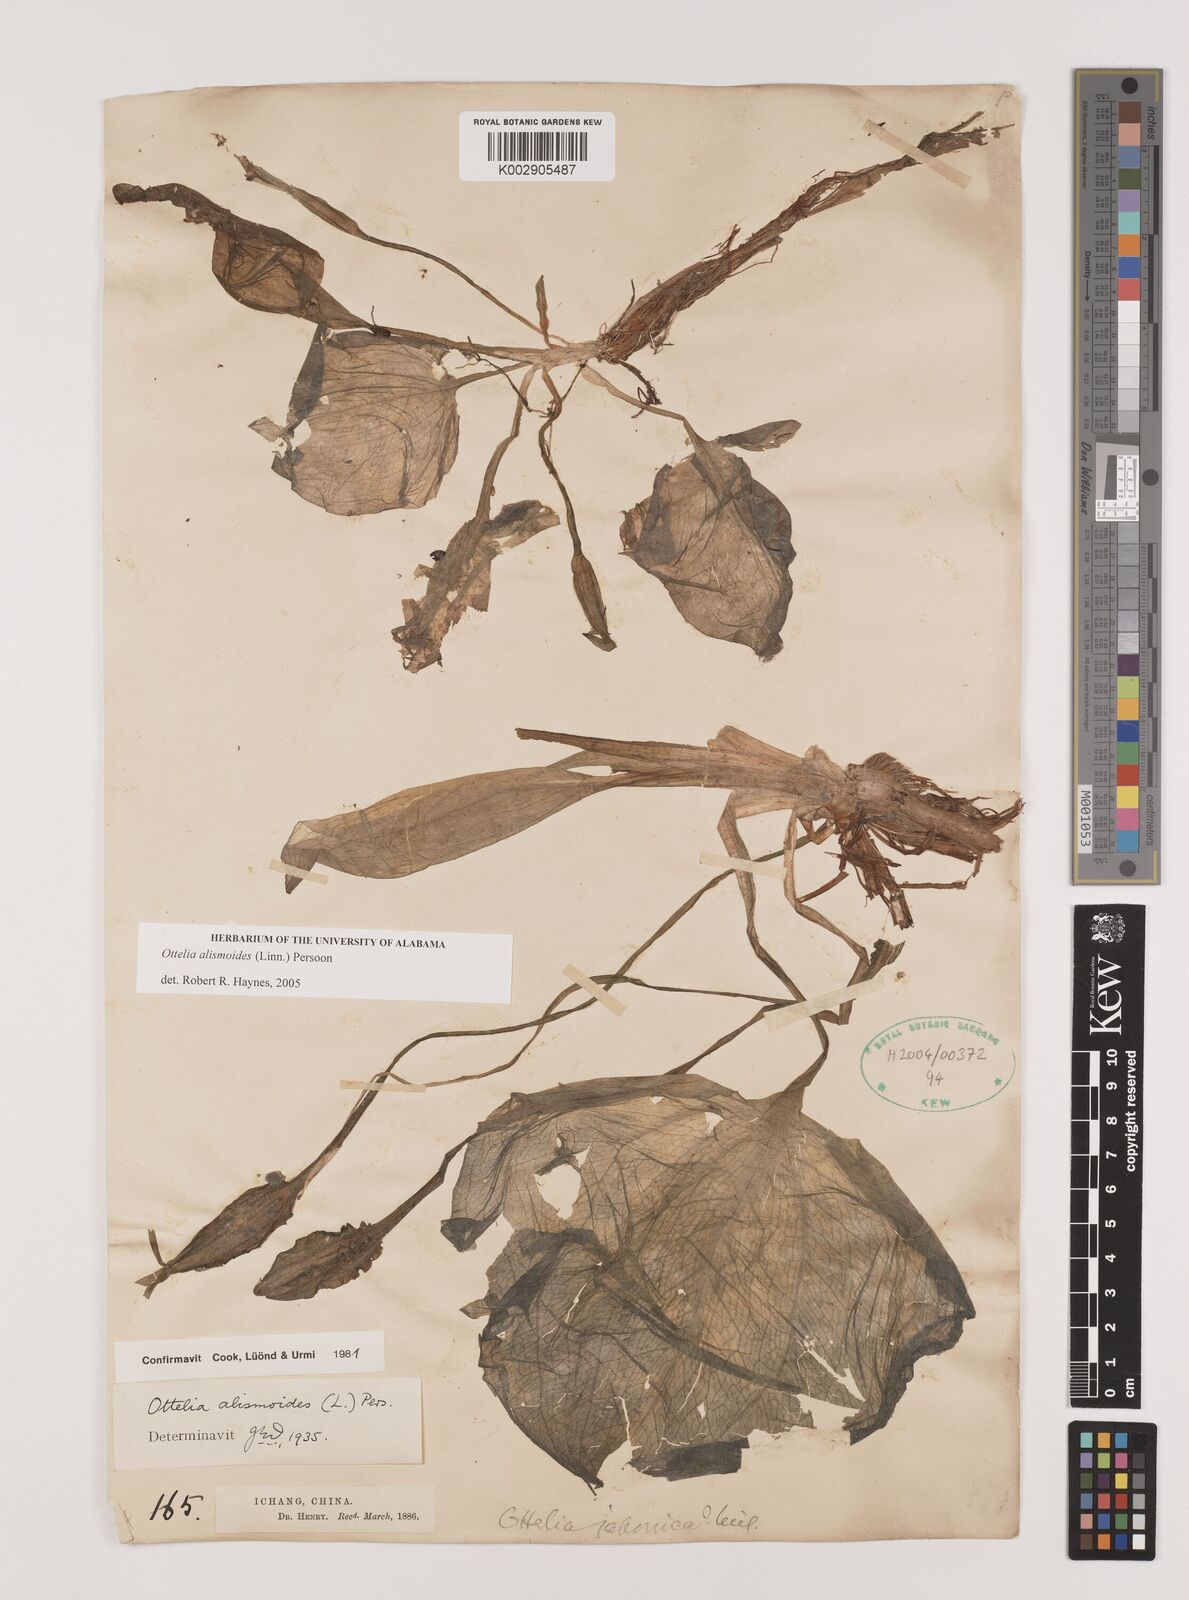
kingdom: Plantae
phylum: Tracheophyta
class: Liliopsida
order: Alismatales
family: Hydrocharitaceae
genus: Ottelia
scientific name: Ottelia alismoides
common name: Duck-lettuce
